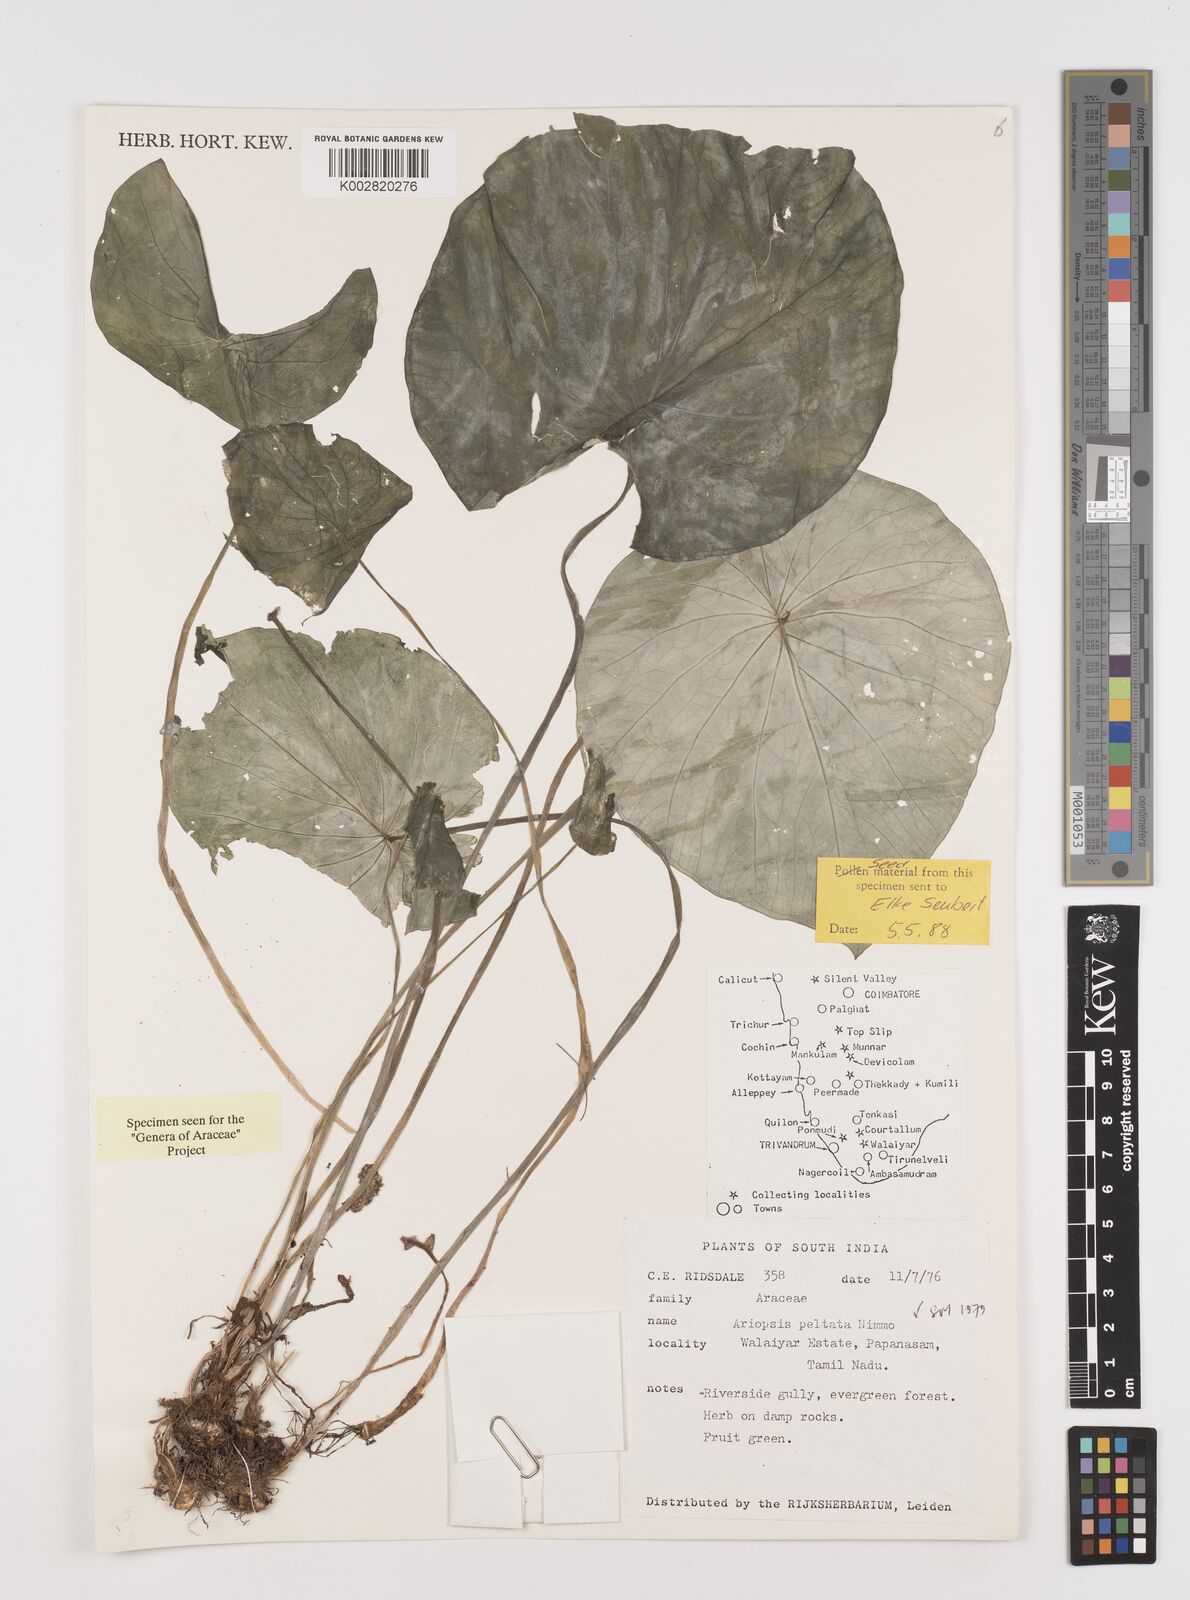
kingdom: Plantae
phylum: Tracheophyta
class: Liliopsida
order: Alismatales
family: Araceae
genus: Ariopsis
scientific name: Ariopsis peltata
